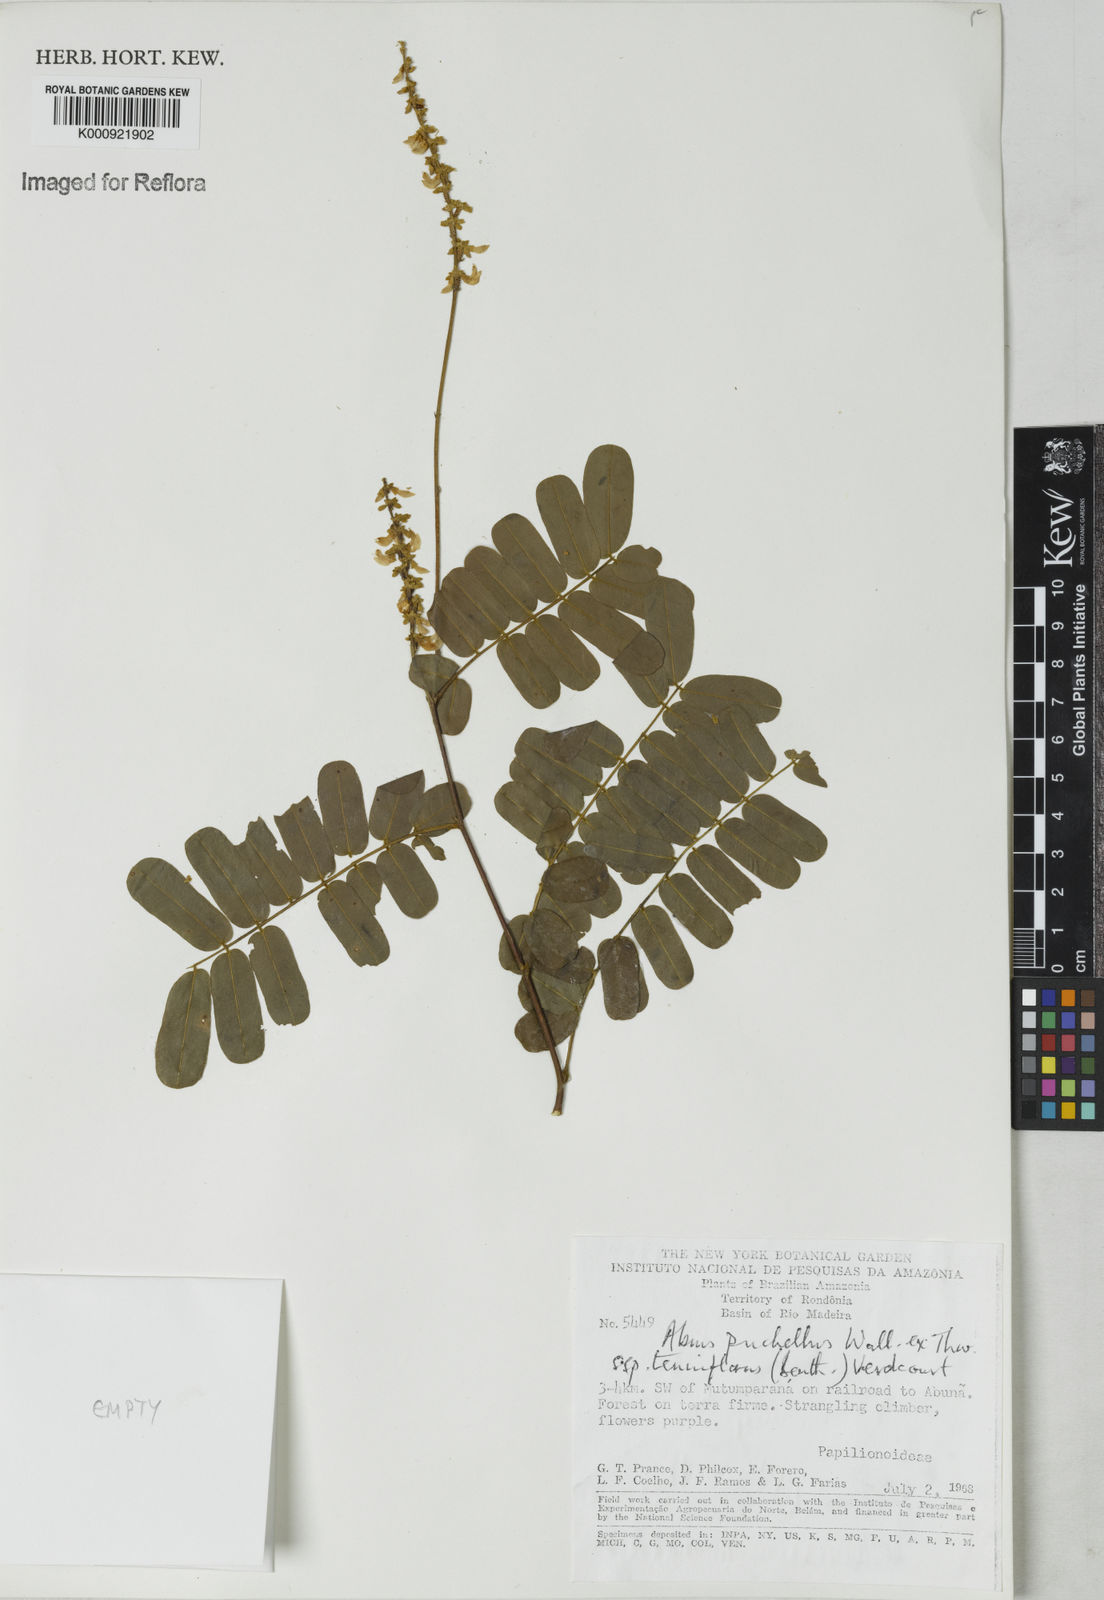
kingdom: Plantae
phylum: Tracheophyta
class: Magnoliopsida
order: Fabales
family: Fabaceae
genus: Abrus
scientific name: Abrus melanospermus
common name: Licorice-root
